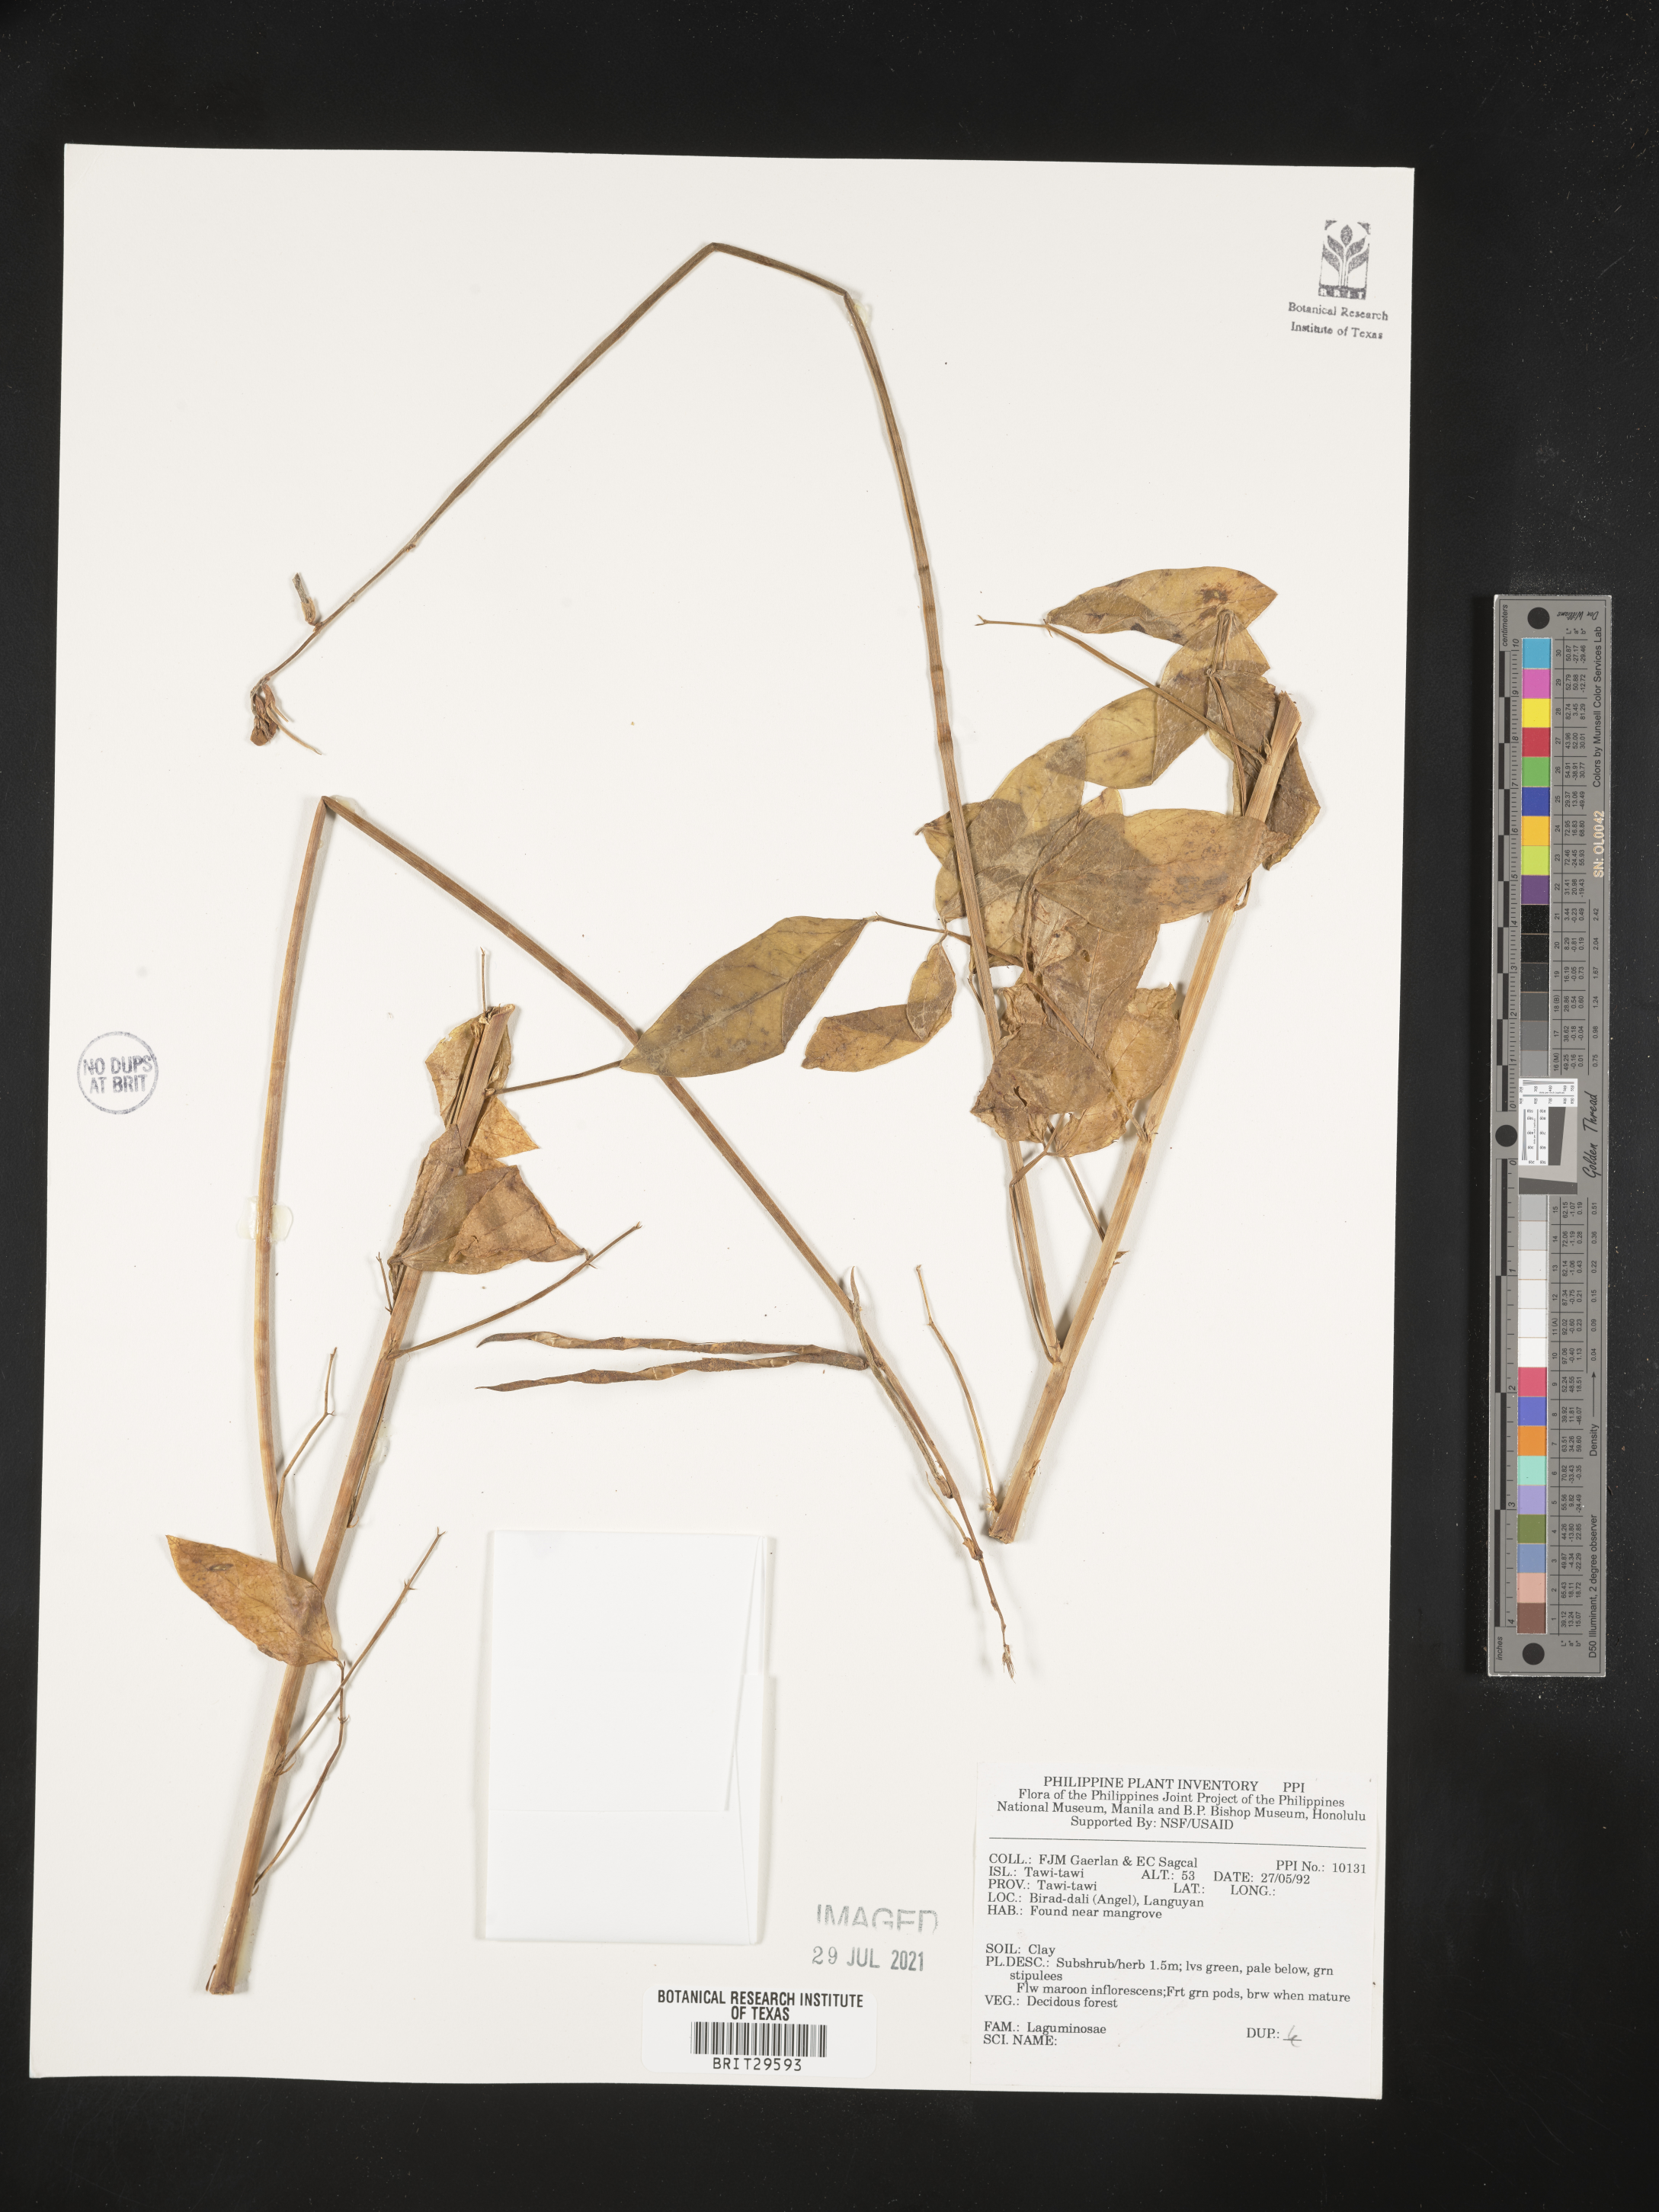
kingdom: Plantae
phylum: Tracheophyta
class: Magnoliopsida
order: Fabales
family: Fabaceae
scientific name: Fabaceae
